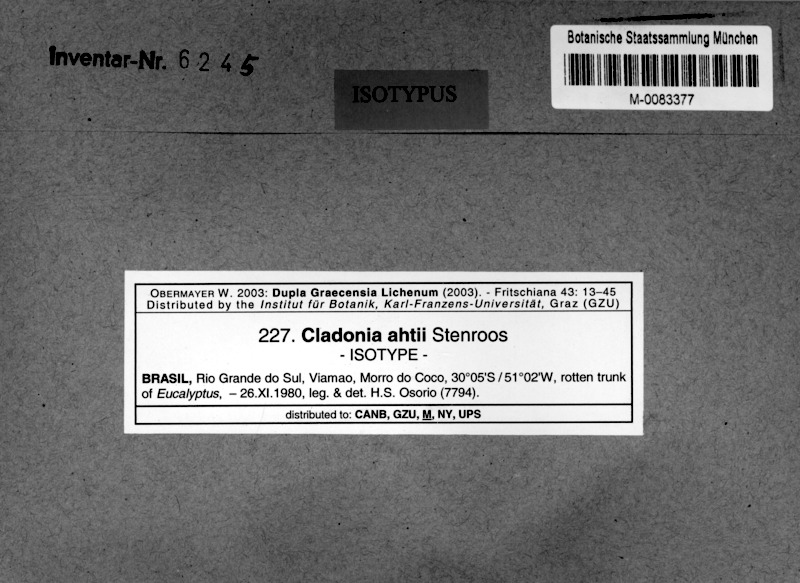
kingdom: Fungi
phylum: Ascomycota
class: Lecanoromycetes
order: Lecanorales
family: Cladoniaceae
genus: Cladonia
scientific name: Cladonia ahtii
